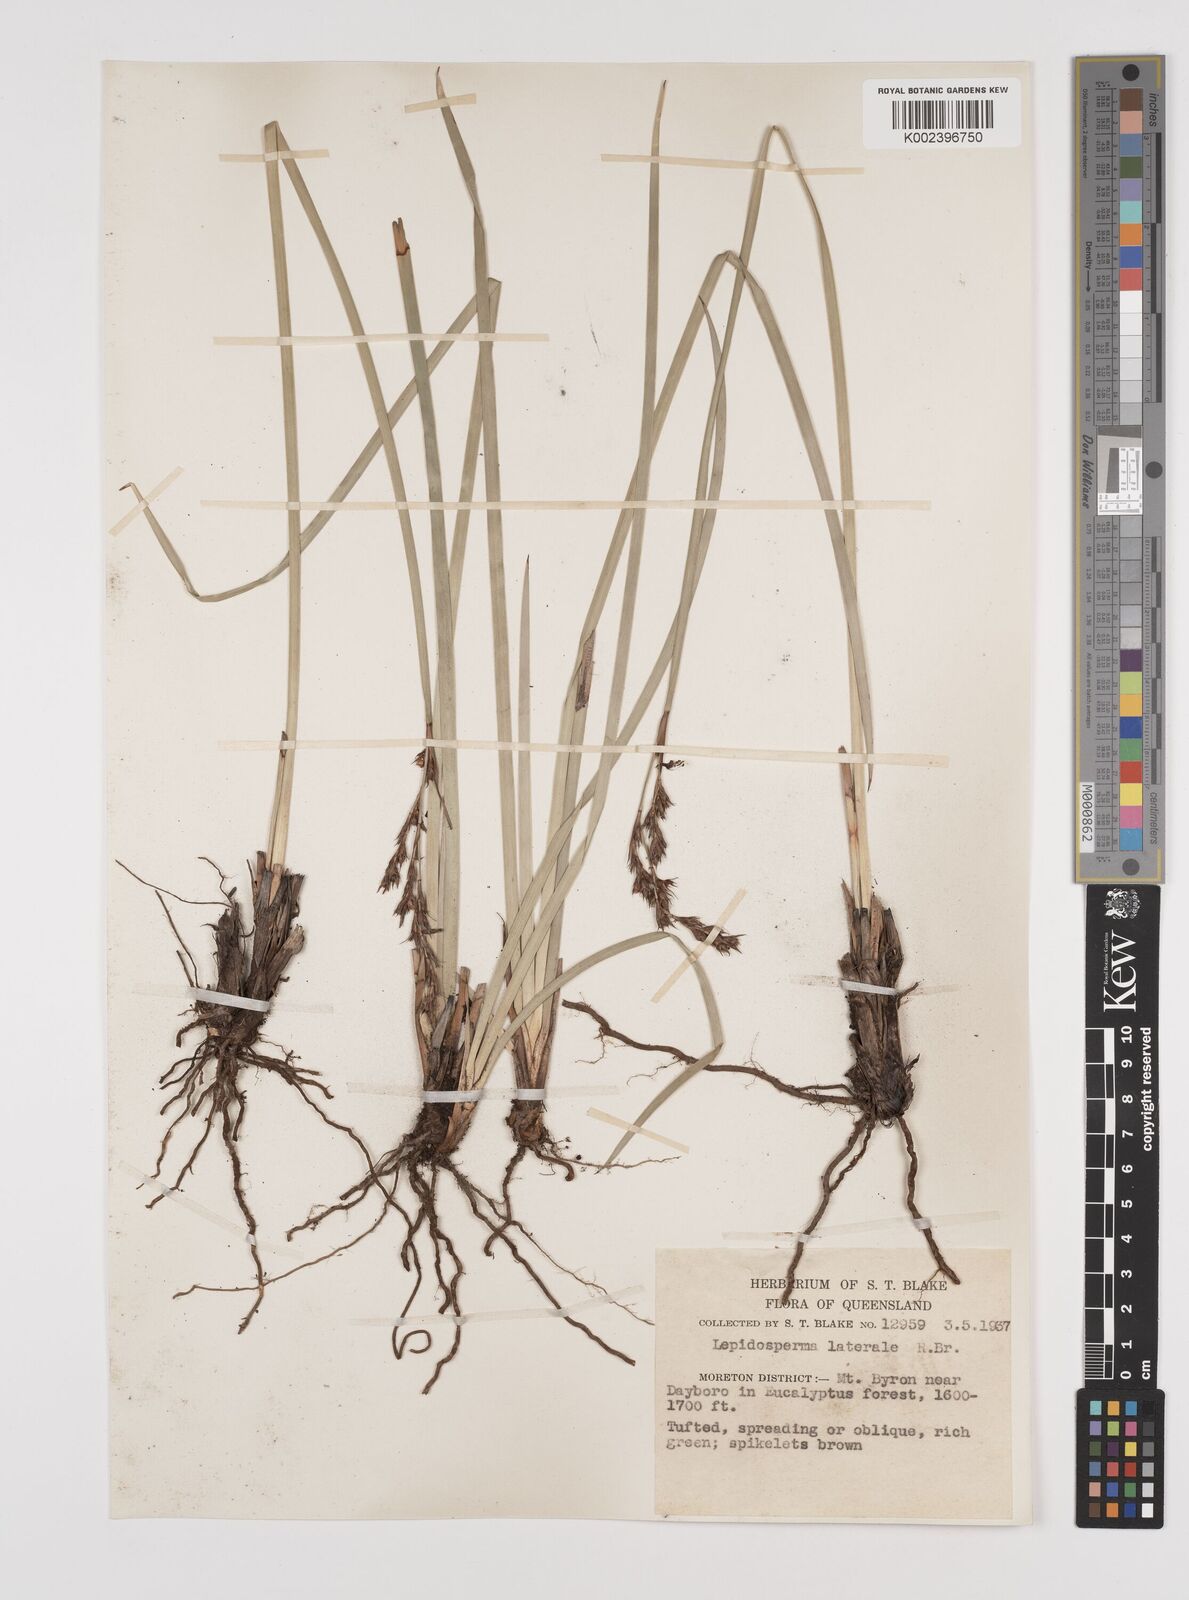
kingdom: Plantae
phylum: Tracheophyta
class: Liliopsida
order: Poales
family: Cyperaceae
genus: Lepidosperma
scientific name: Lepidosperma laterale
